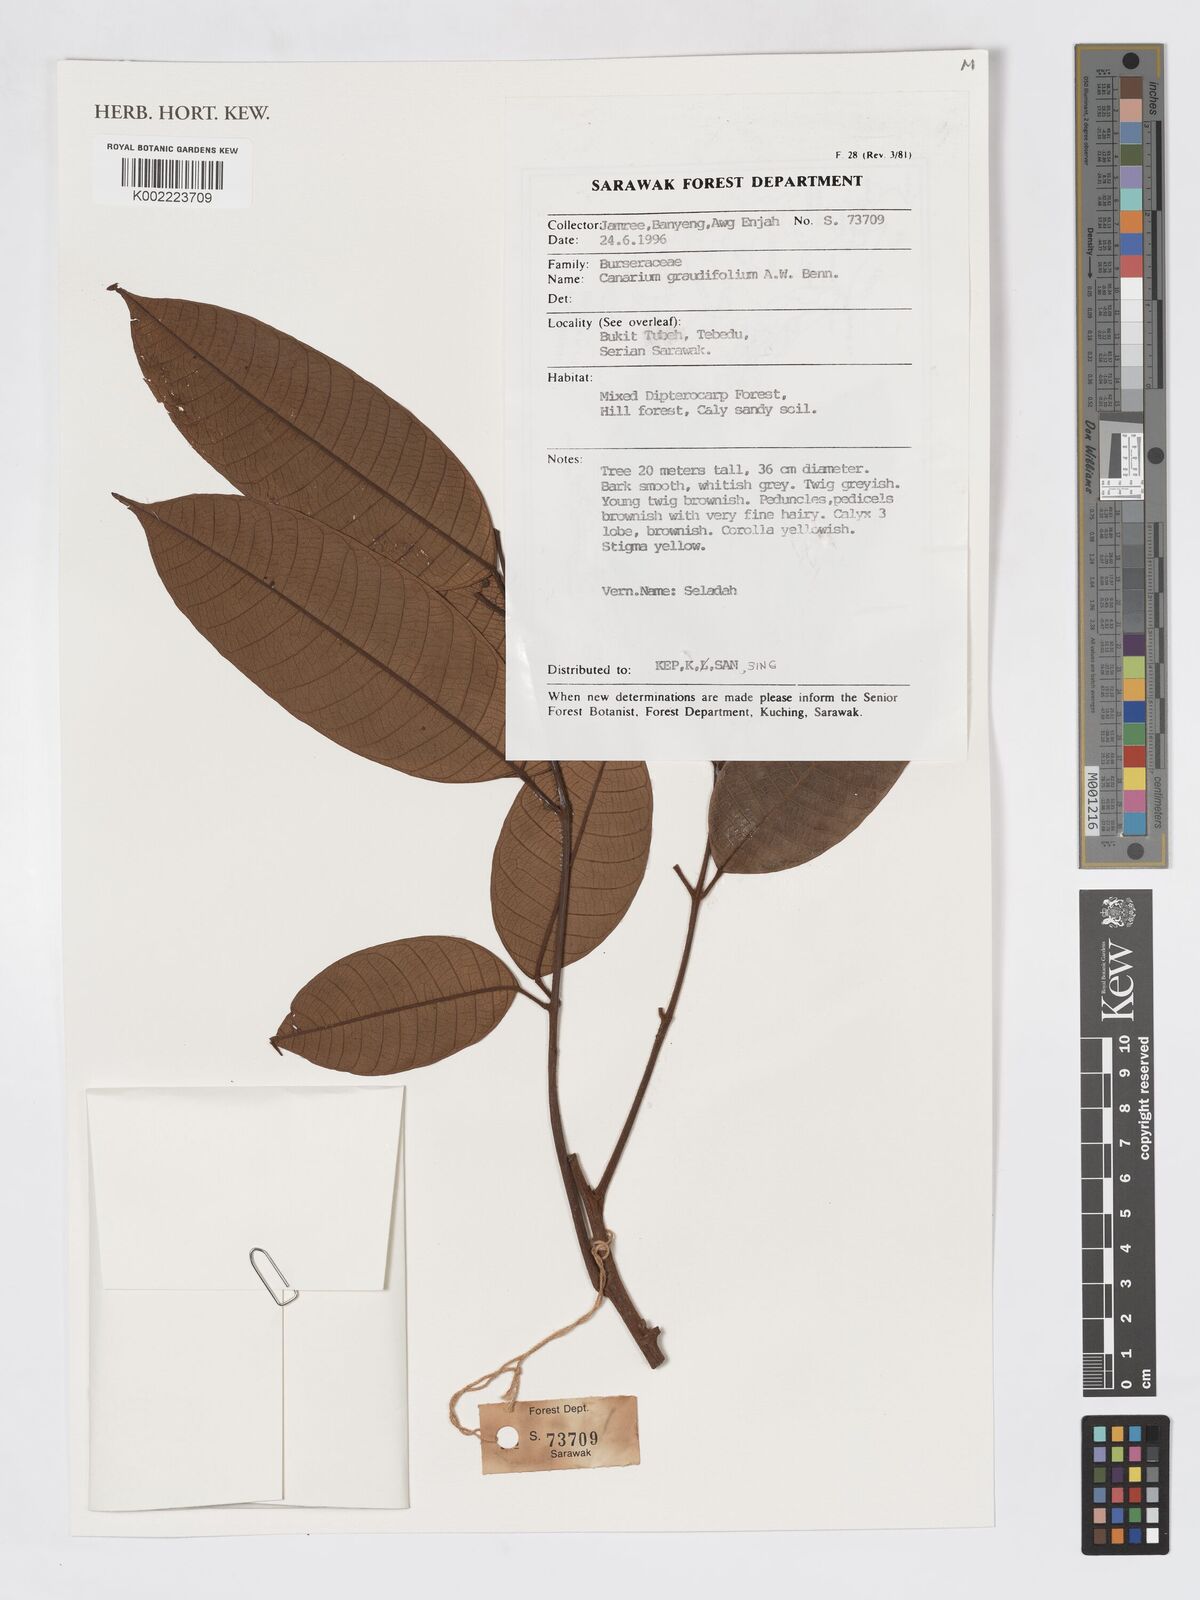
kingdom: Plantae
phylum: Tracheophyta
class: Magnoliopsida
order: Sapindales
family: Burseraceae
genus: Canarium
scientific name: Canarium grandifolium
